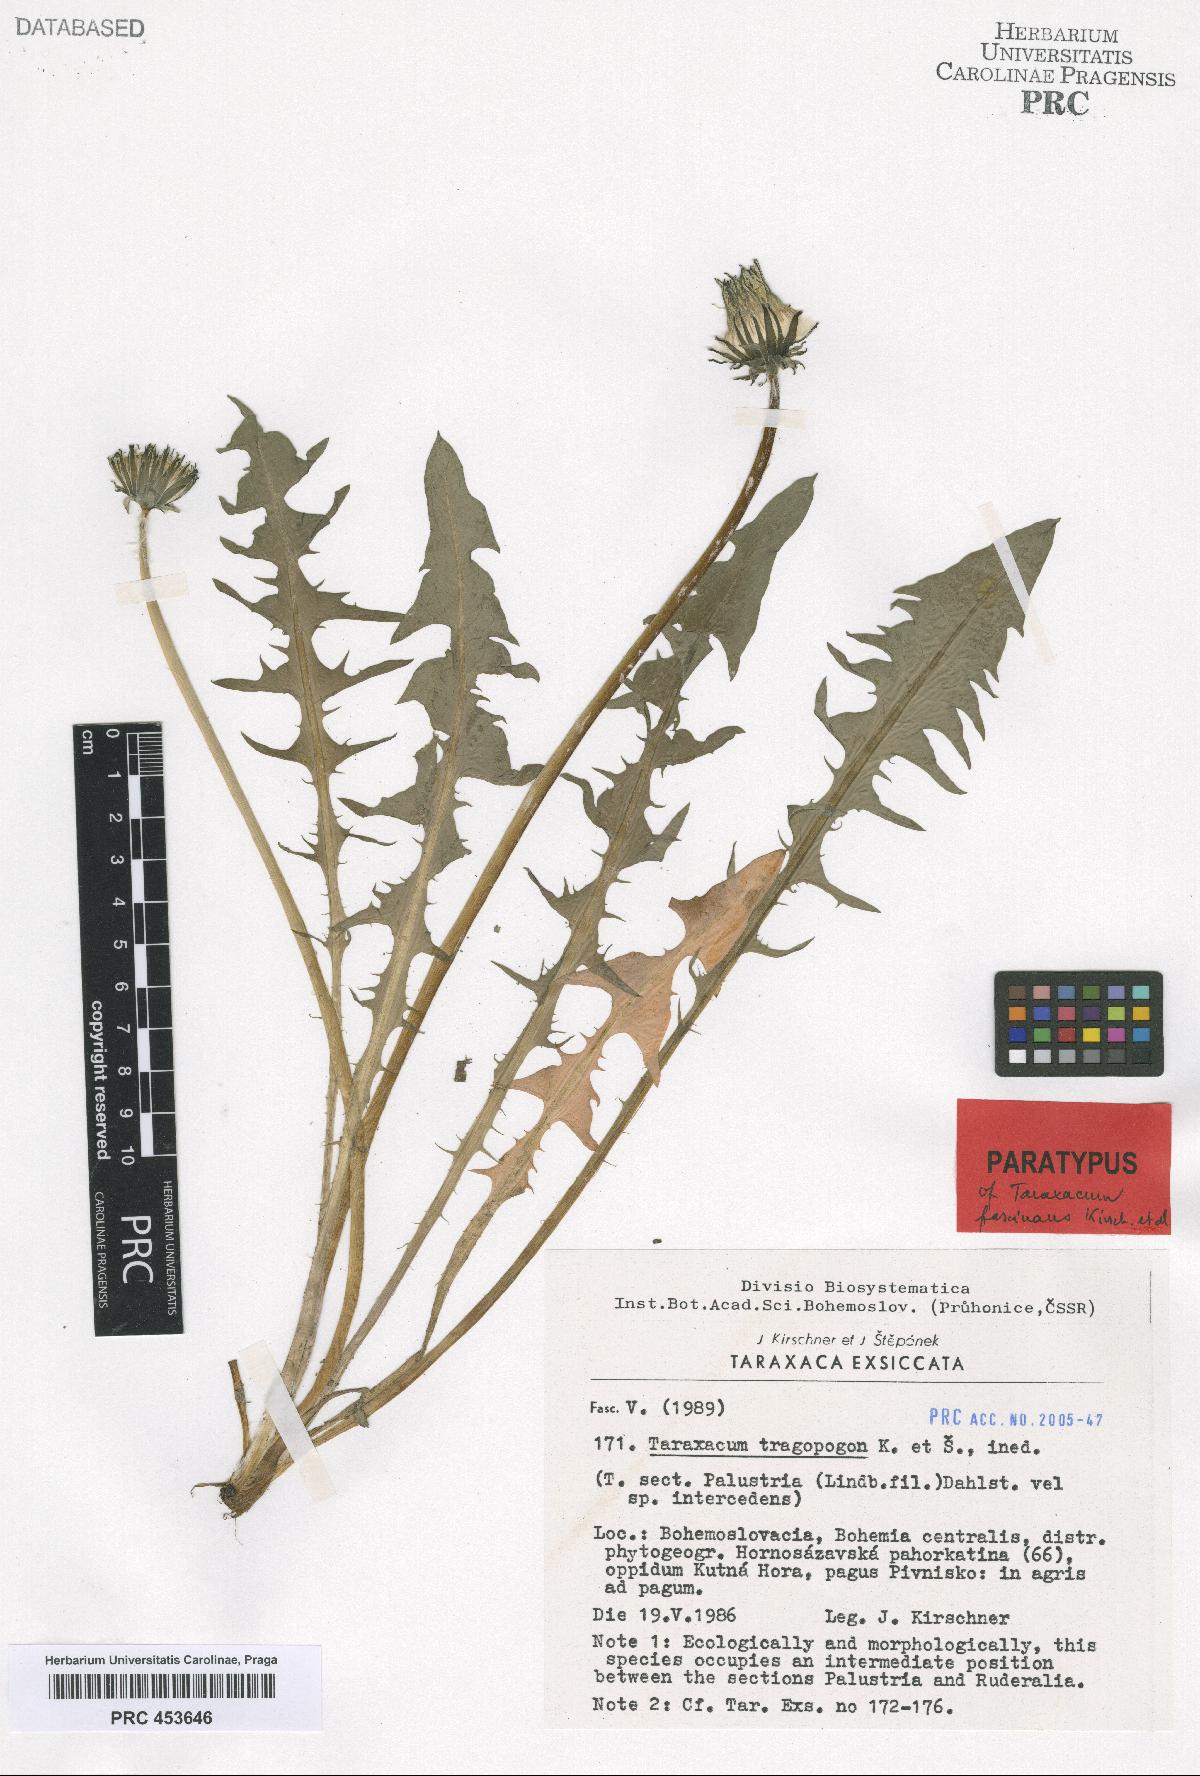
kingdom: Plantae
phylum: Tracheophyta
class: Magnoliopsida
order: Asterales
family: Asteraceae
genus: Taraxacum
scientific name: Taraxacum fascinans
